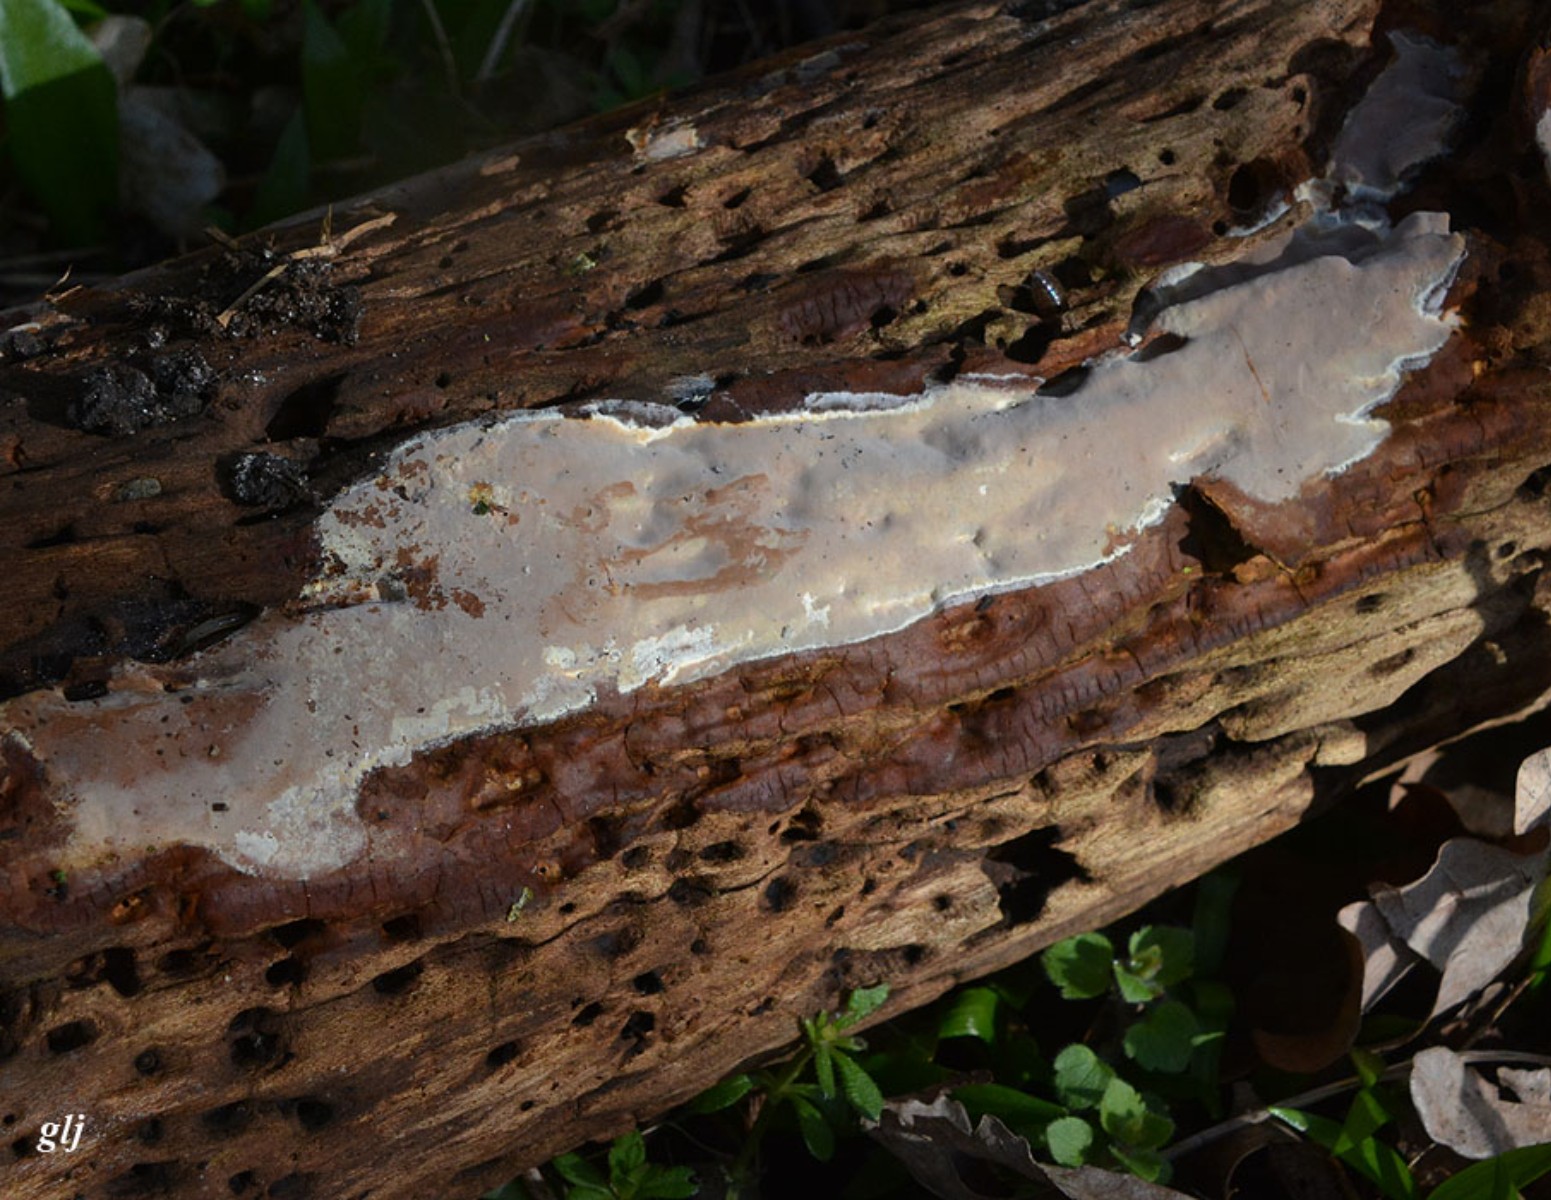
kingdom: Fungi
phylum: Basidiomycota
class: Agaricomycetes
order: Russulales
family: Peniophoraceae
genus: Scytinostroma
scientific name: Scytinostroma hemidichophyticum
